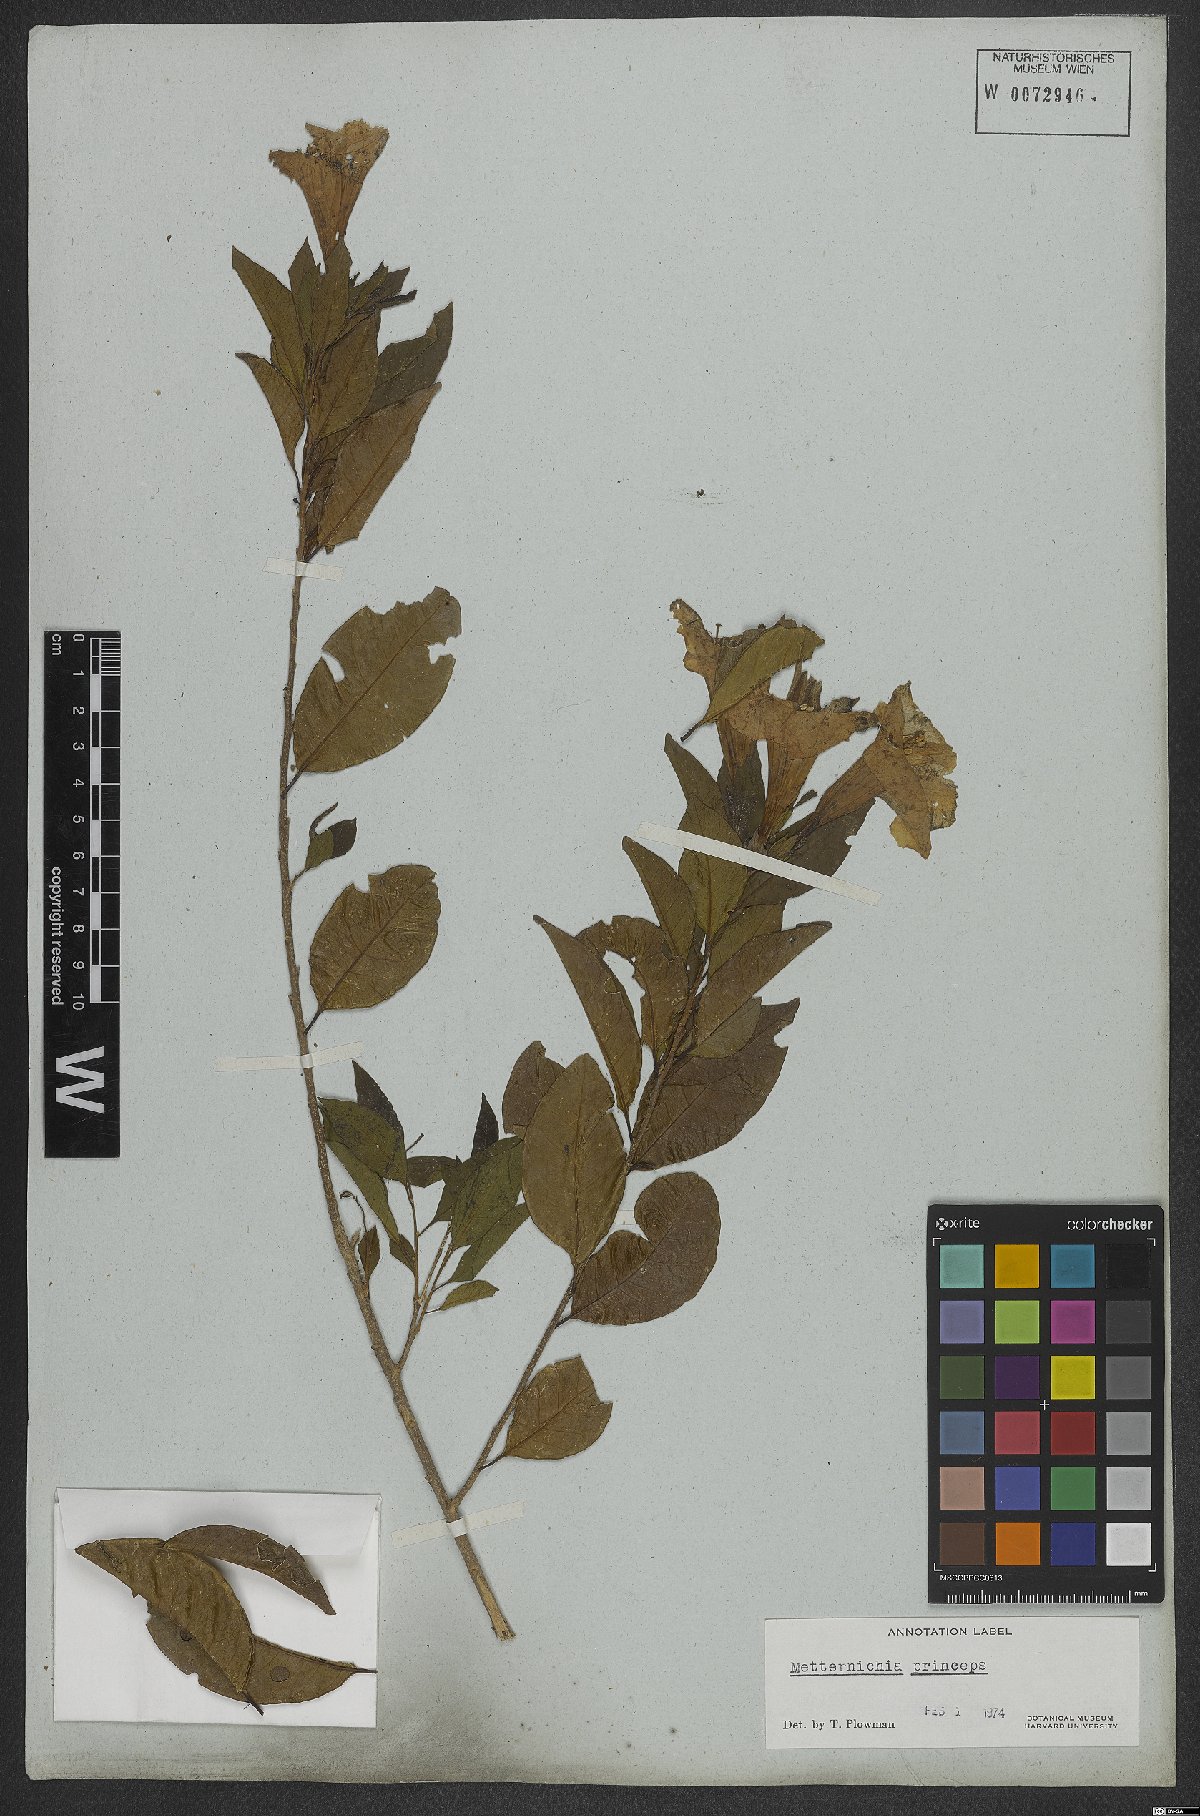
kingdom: Plantae
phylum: Tracheophyta
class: Magnoliopsida
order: Solanales
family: Solanaceae
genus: Metternichia
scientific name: Metternichia principis
